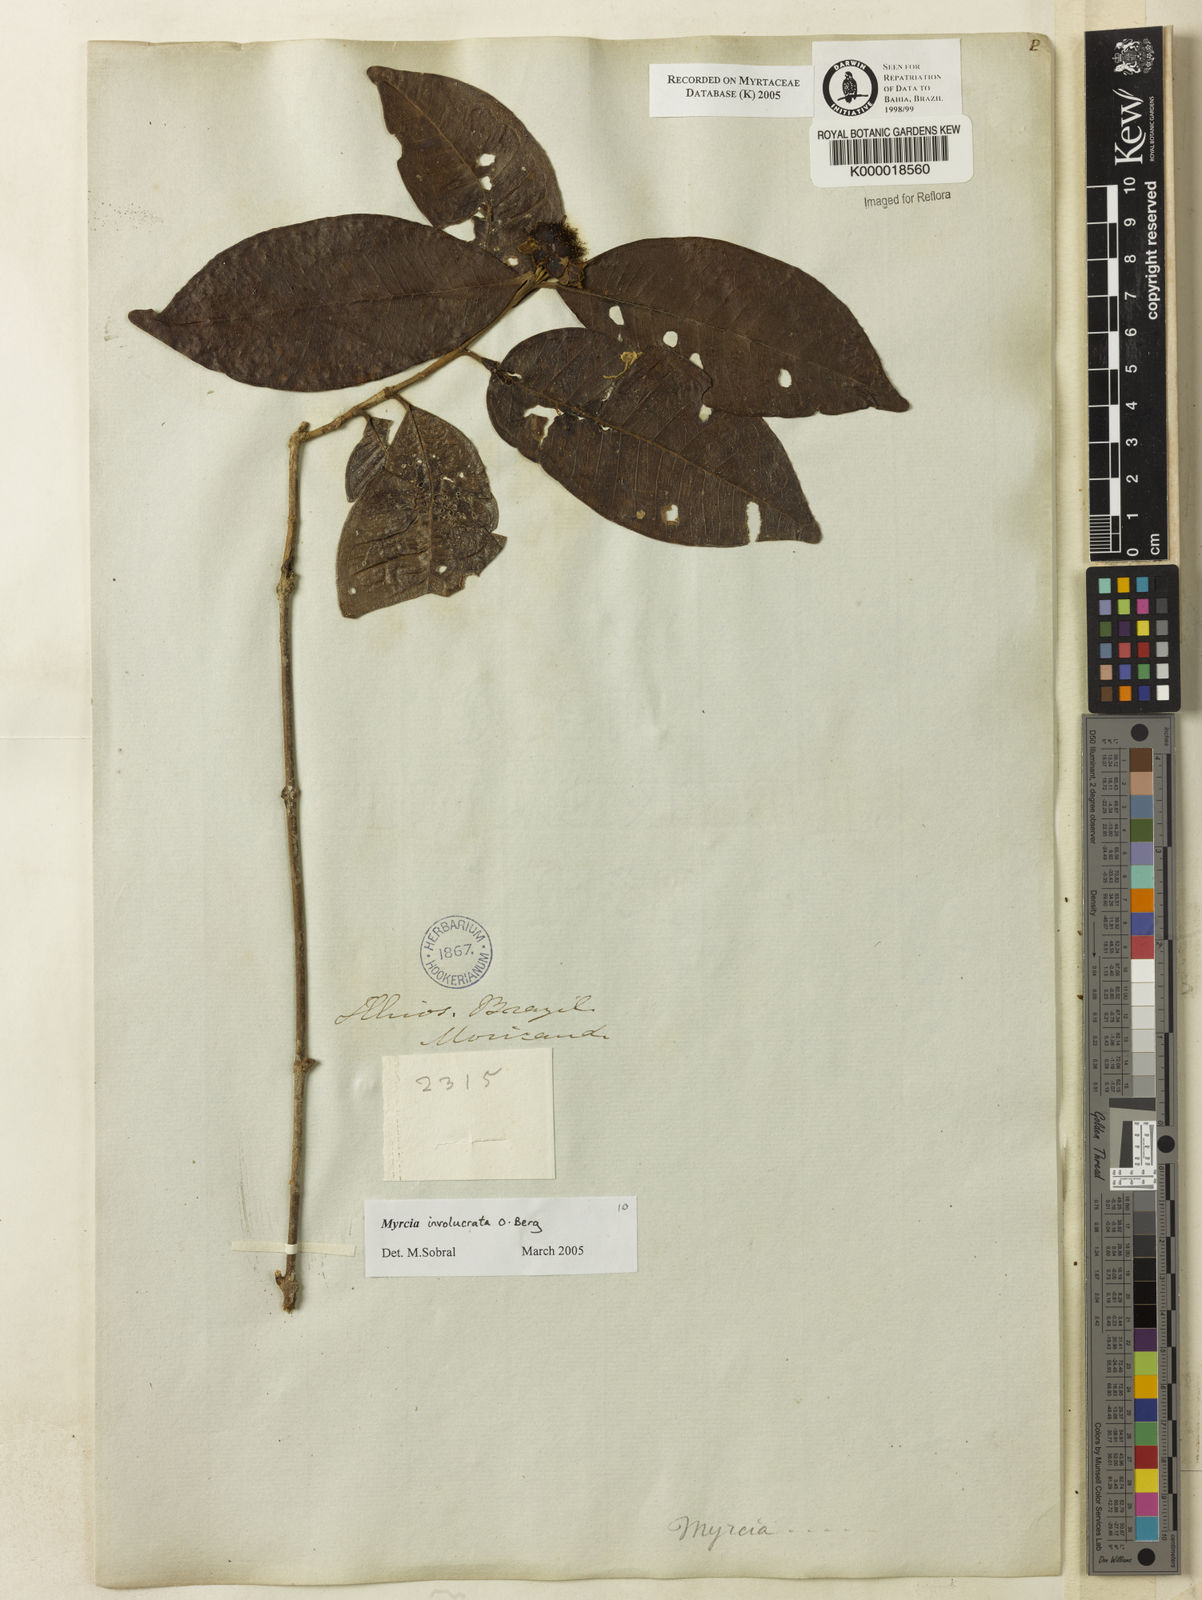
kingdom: Plantae
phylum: Tracheophyta
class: Magnoliopsida
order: Myrtales
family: Myrtaceae
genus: Myrcia
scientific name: Myrcia
